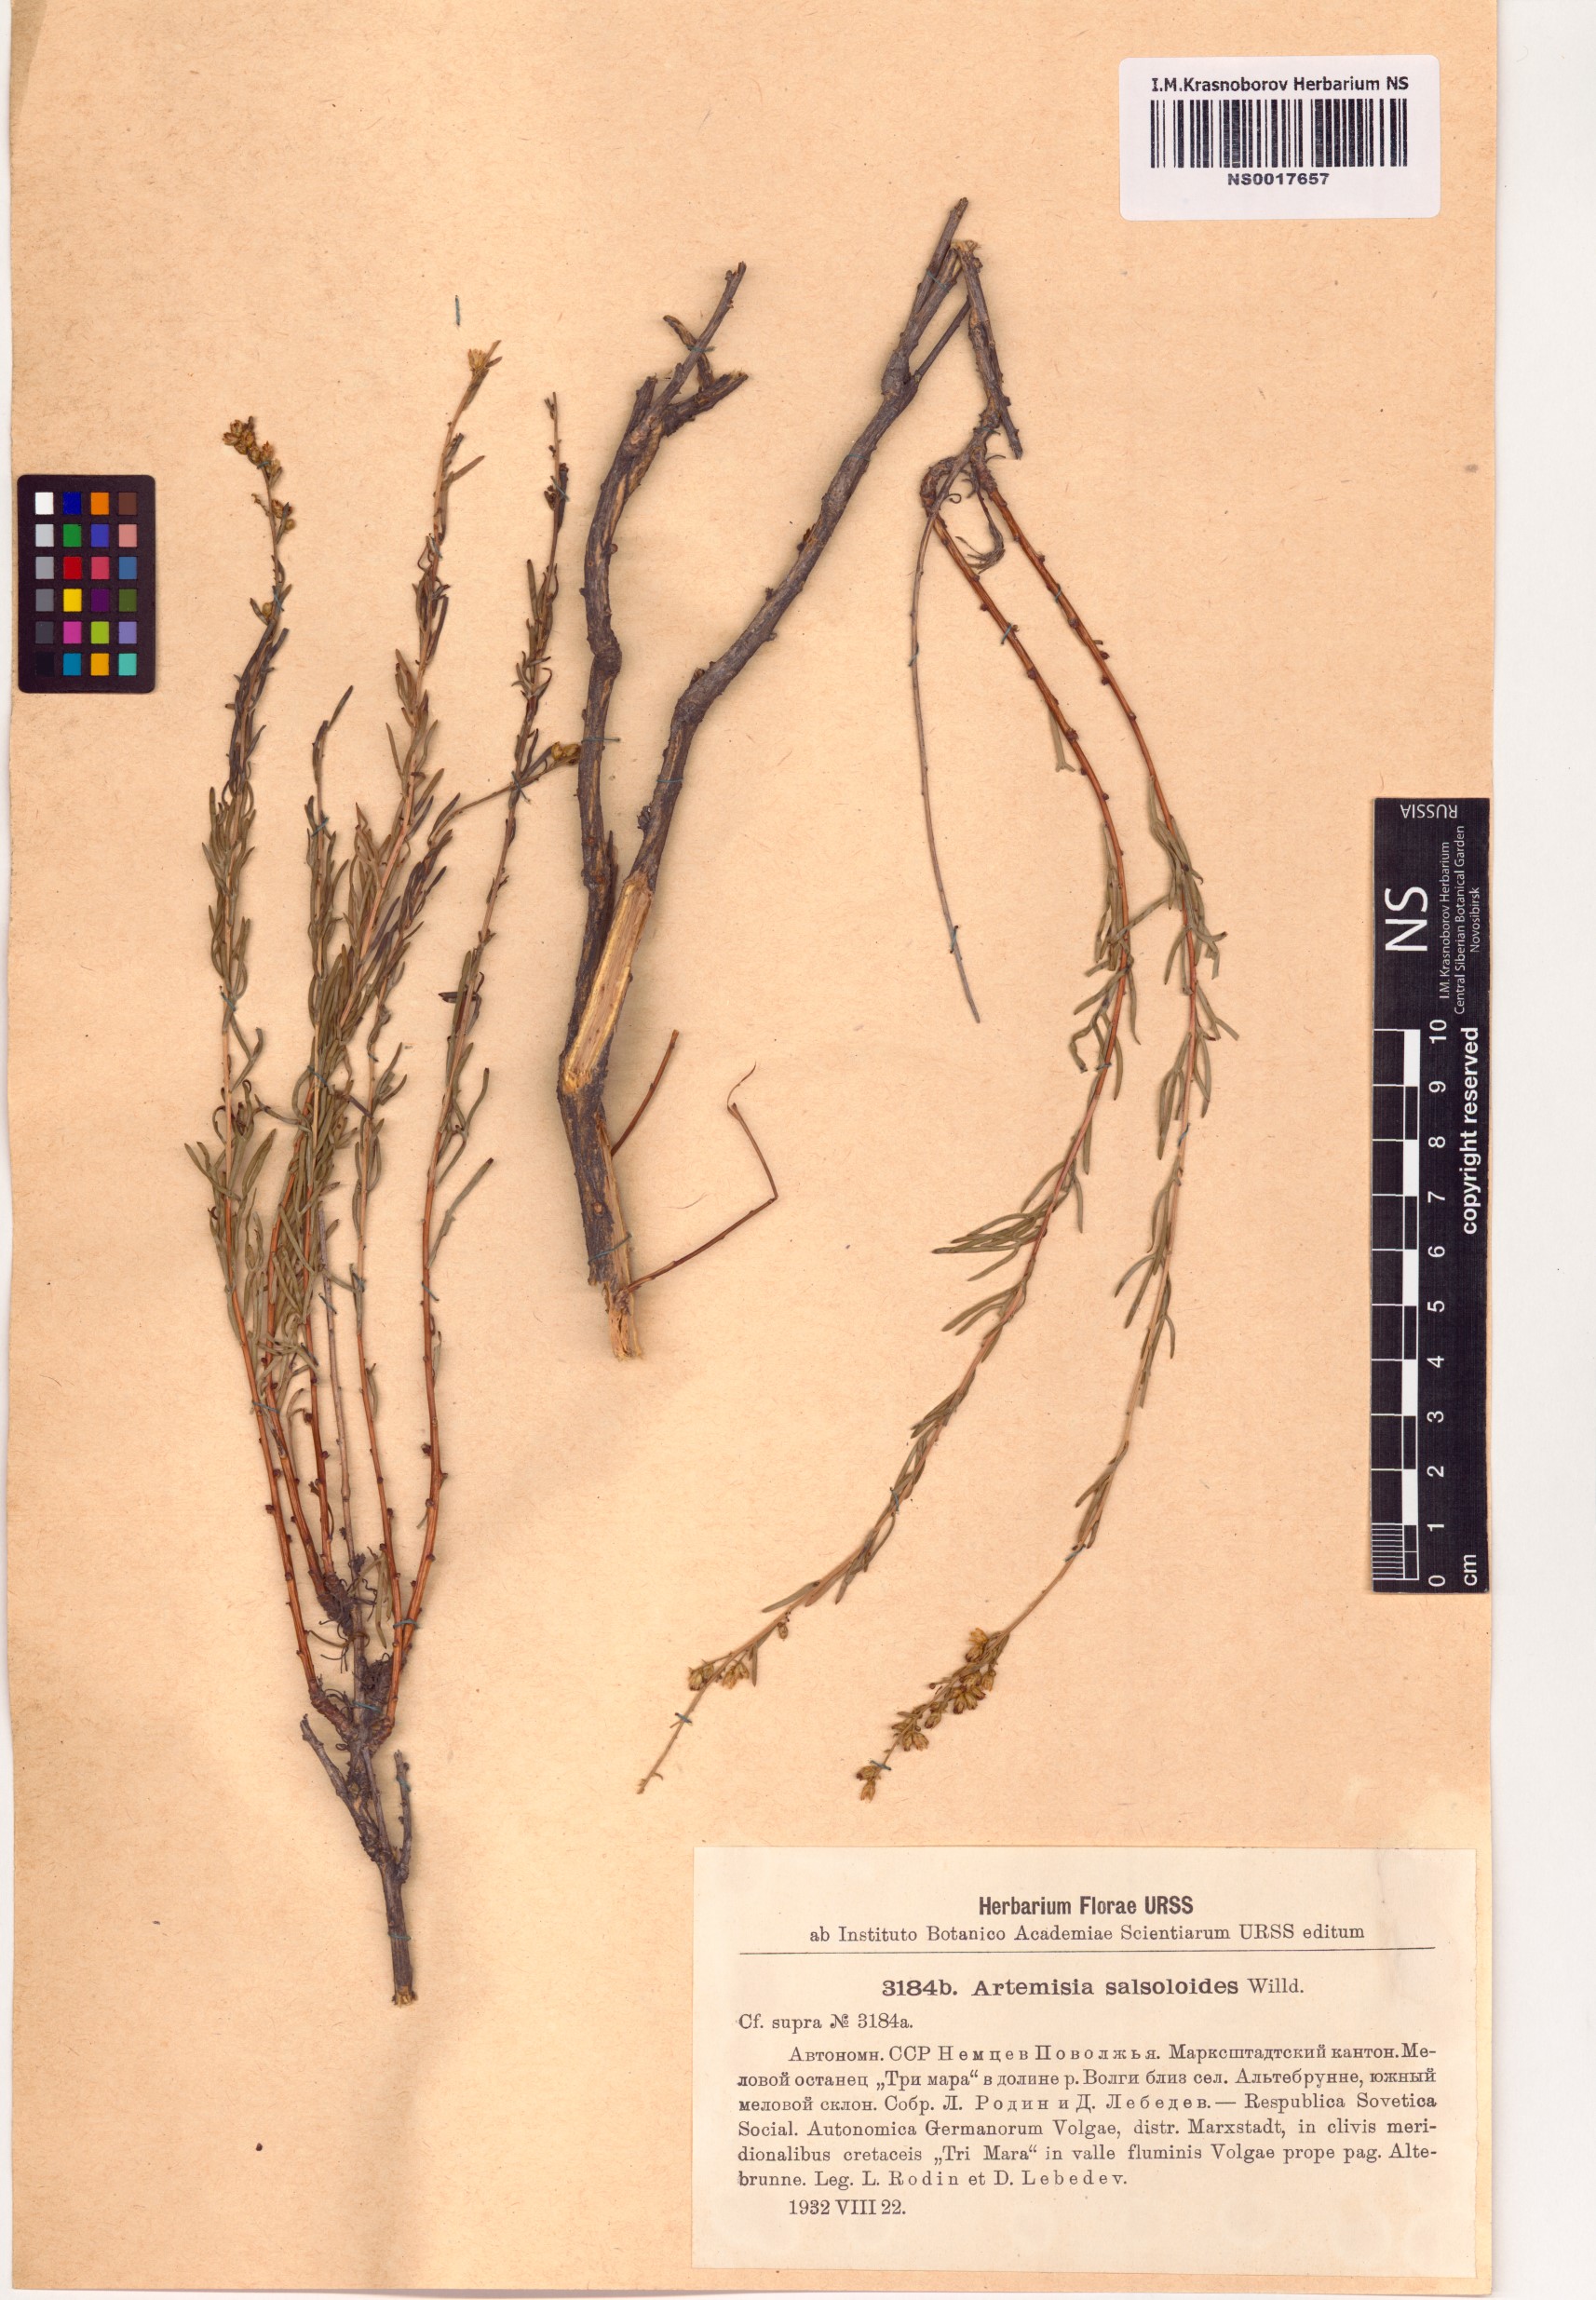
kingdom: Plantae
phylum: Tracheophyta
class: Magnoliopsida
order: Asterales
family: Asteraceae
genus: Artemisia
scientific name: Artemisia salsoloides
